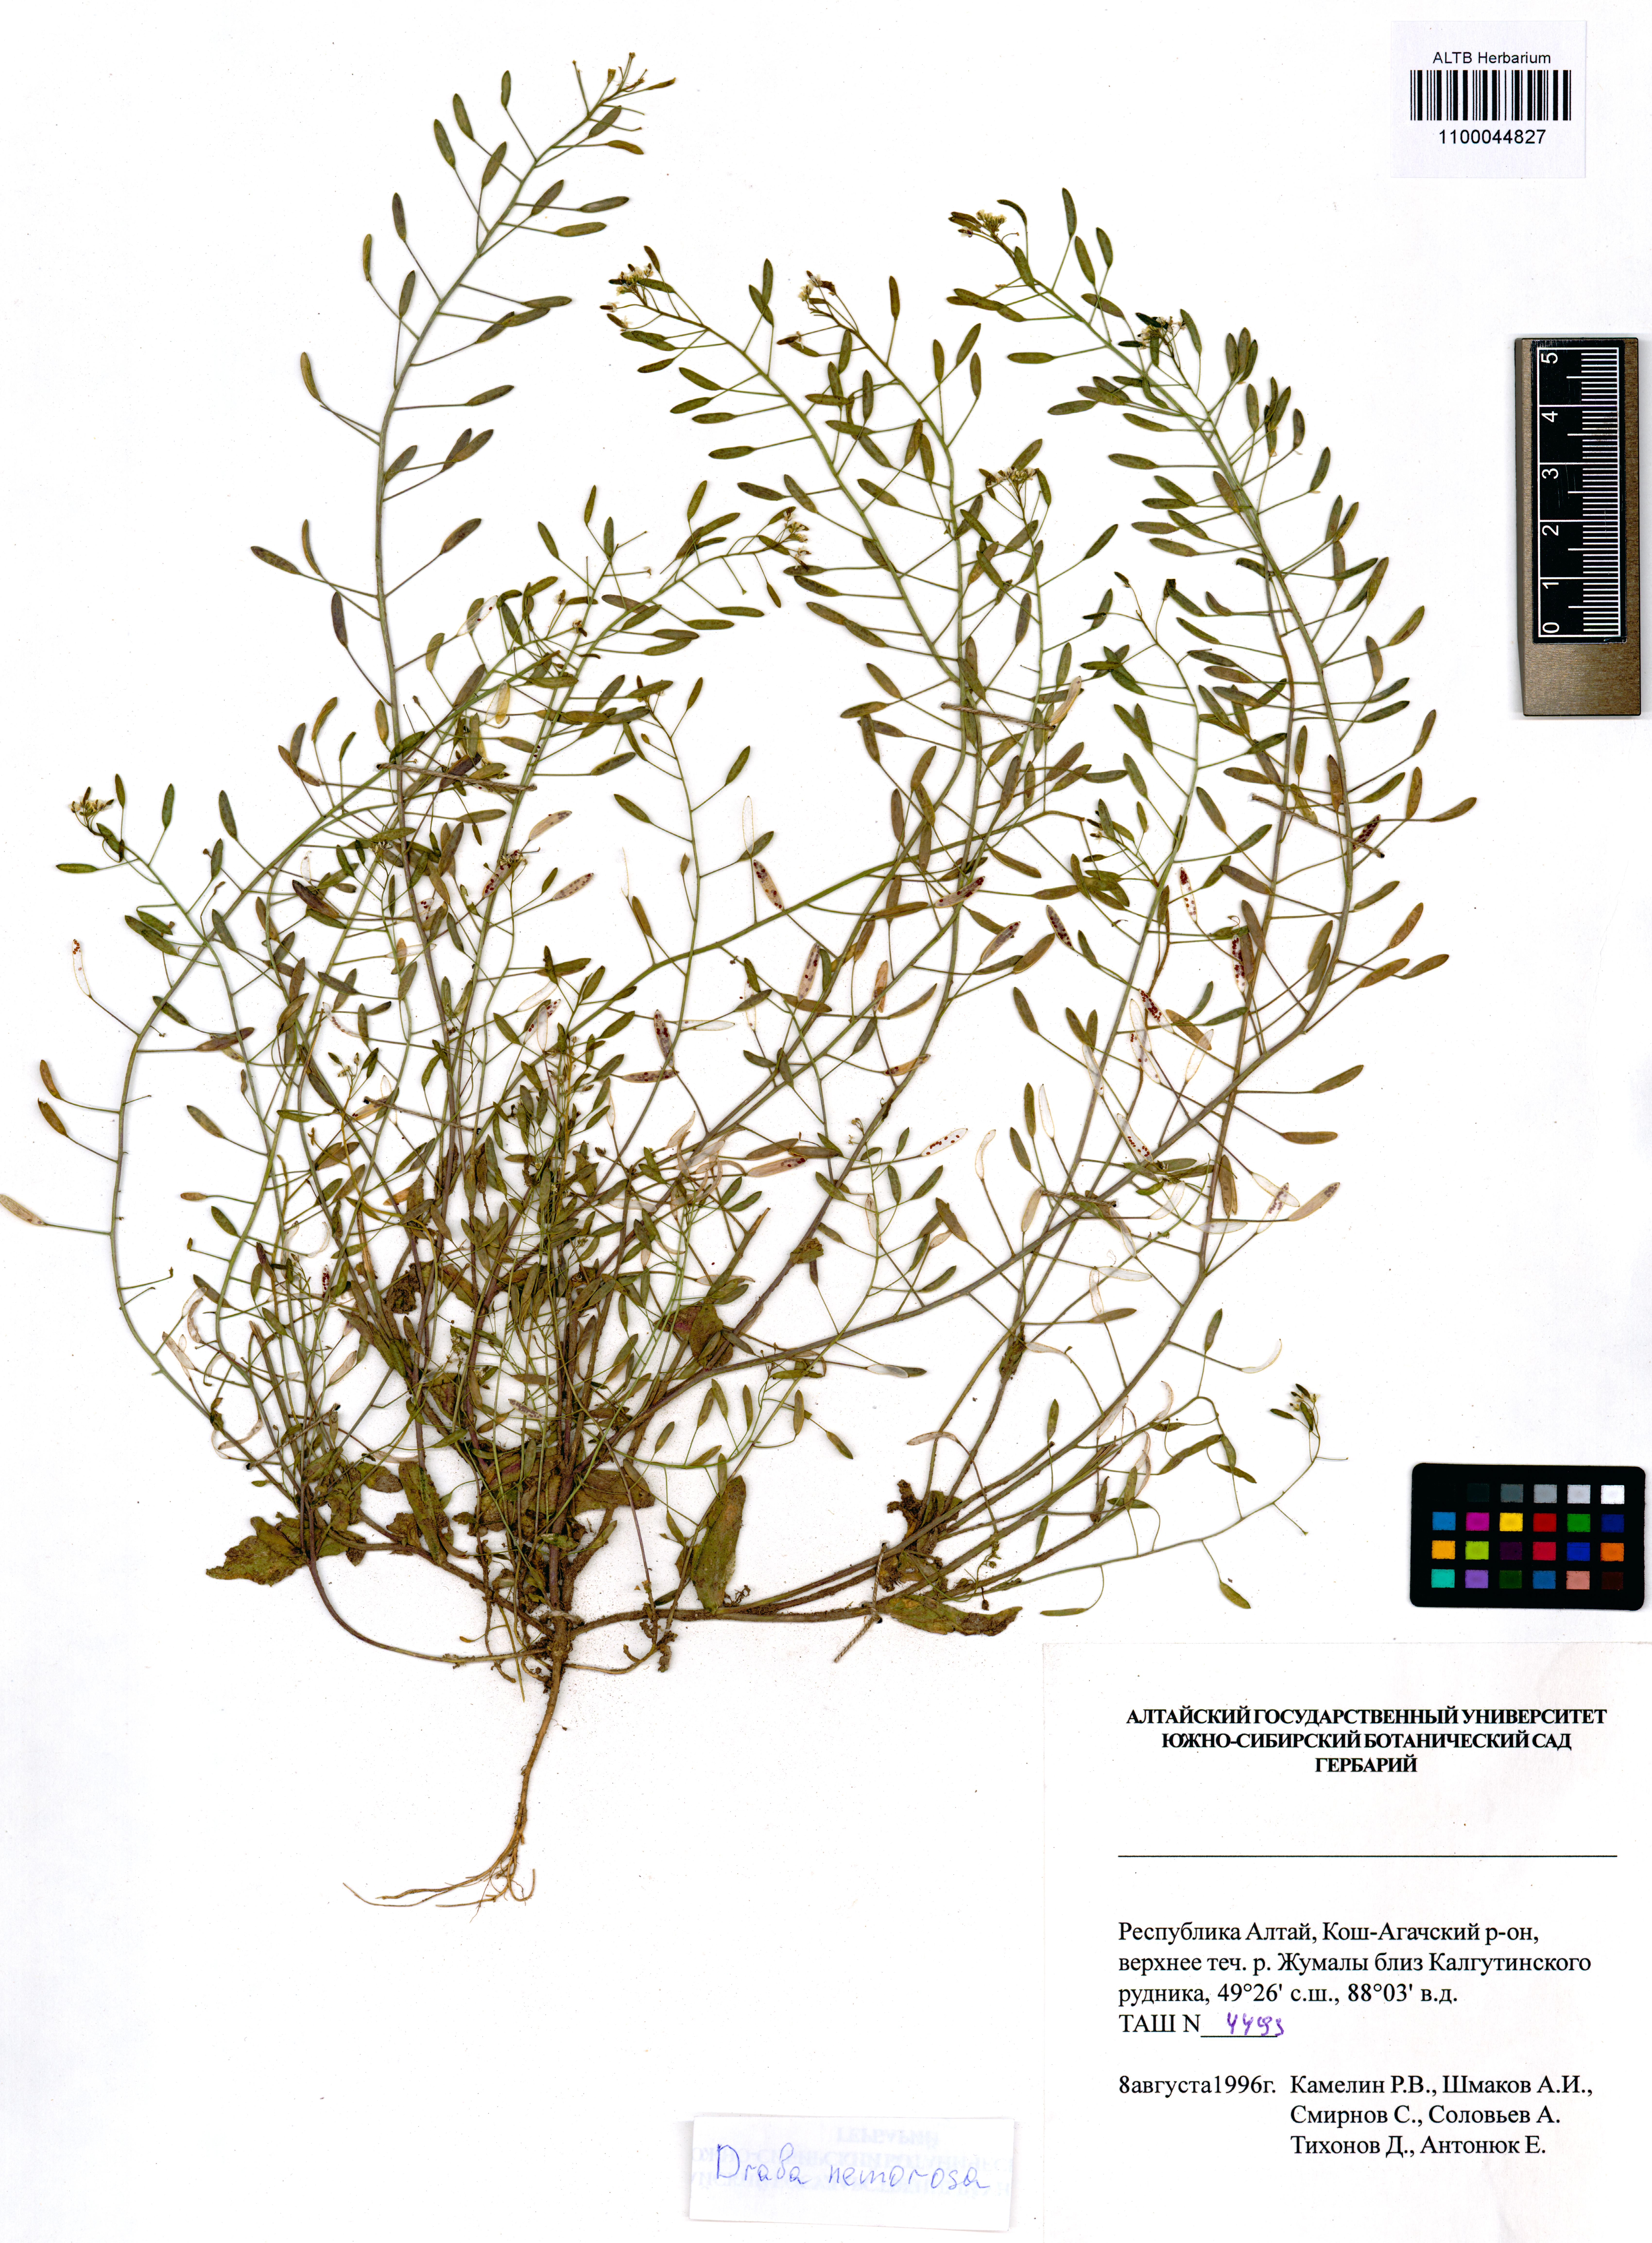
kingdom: Plantae
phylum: Tracheophyta
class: Magnoliopsida
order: Brassicales
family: Brassicaceae
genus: Draba
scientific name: Draba nemorosa
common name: Wood whitlow-grass
